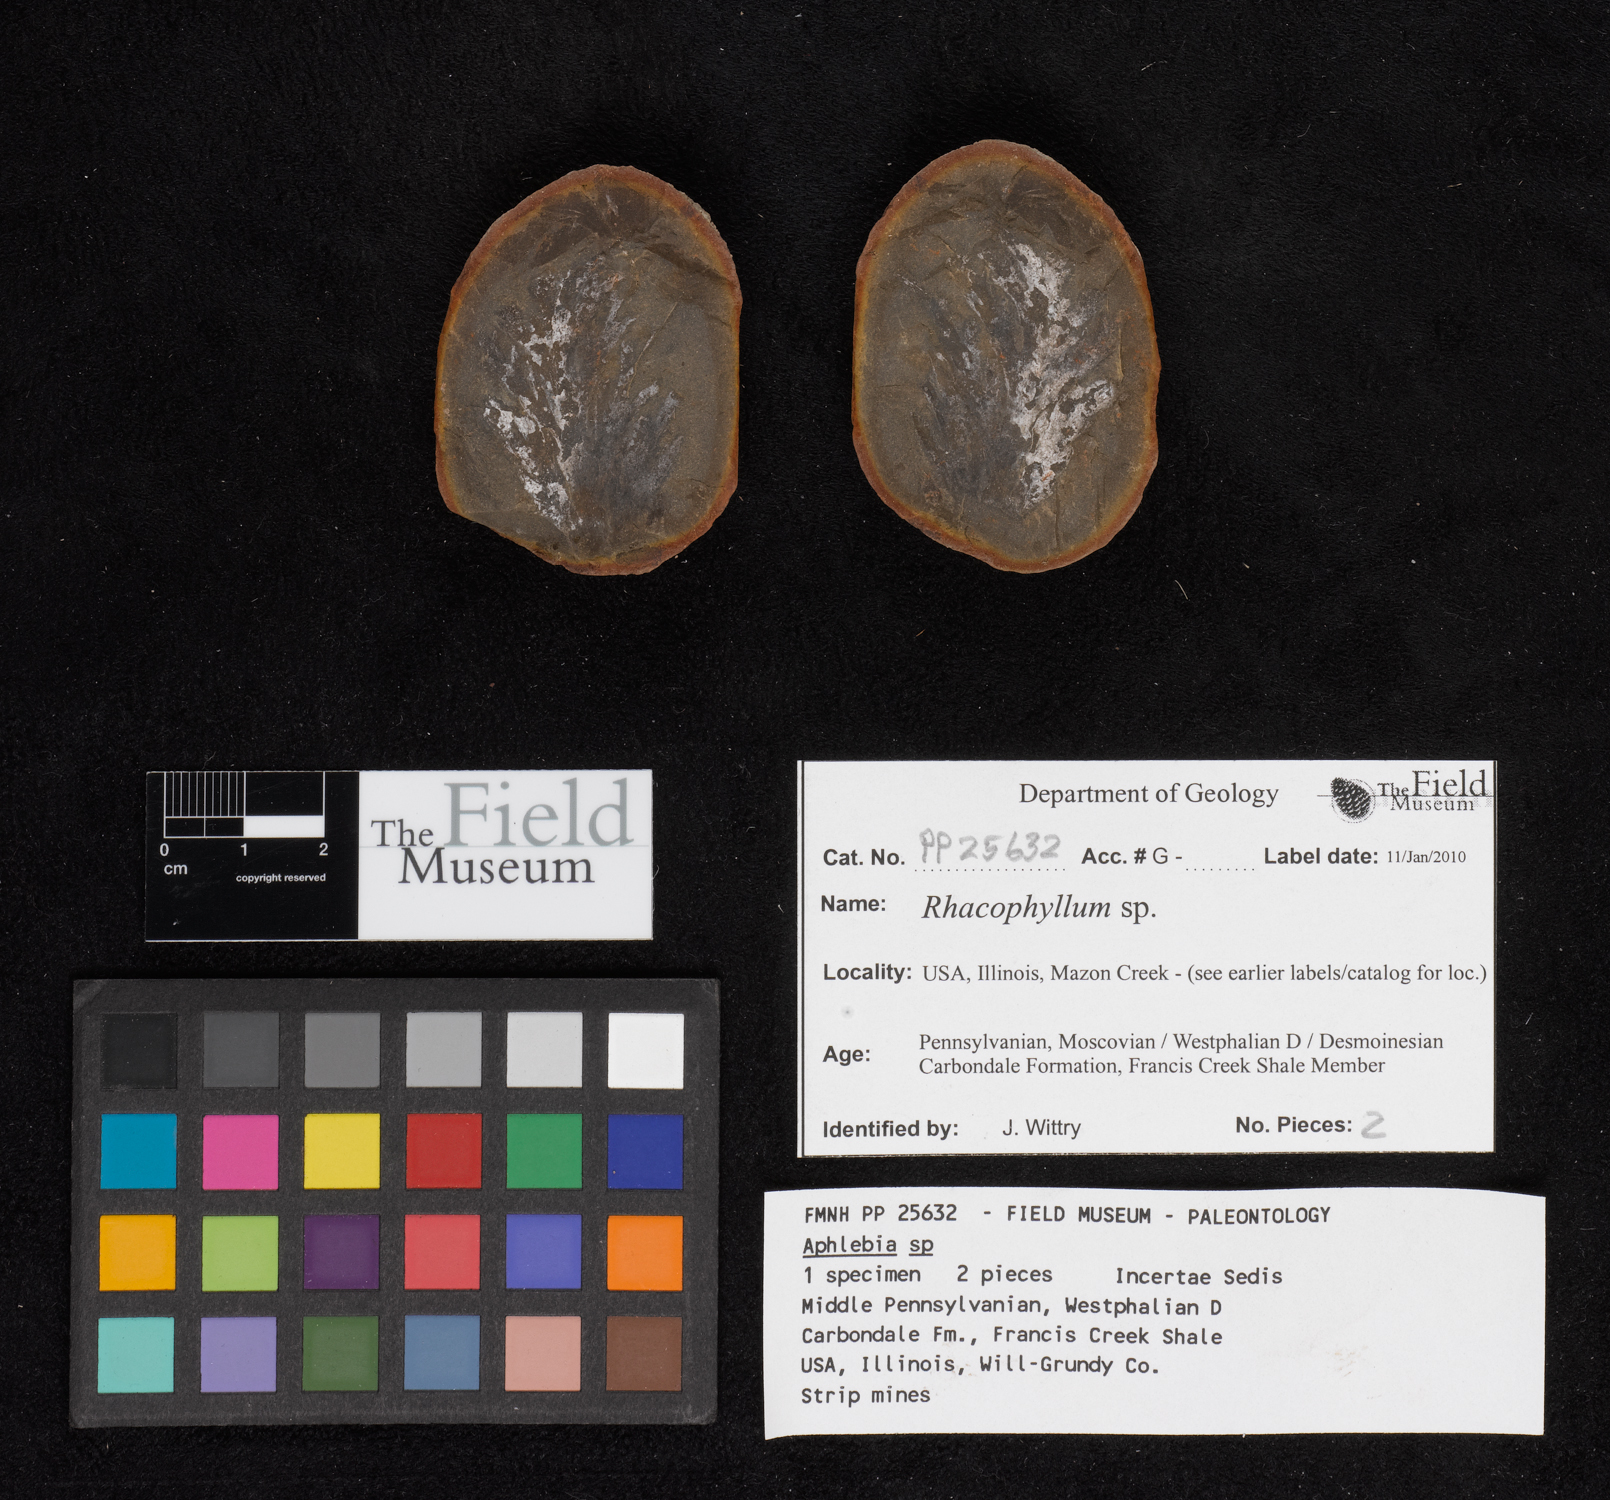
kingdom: Plantae
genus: Rhacophyllum
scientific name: Rhacophyllum
